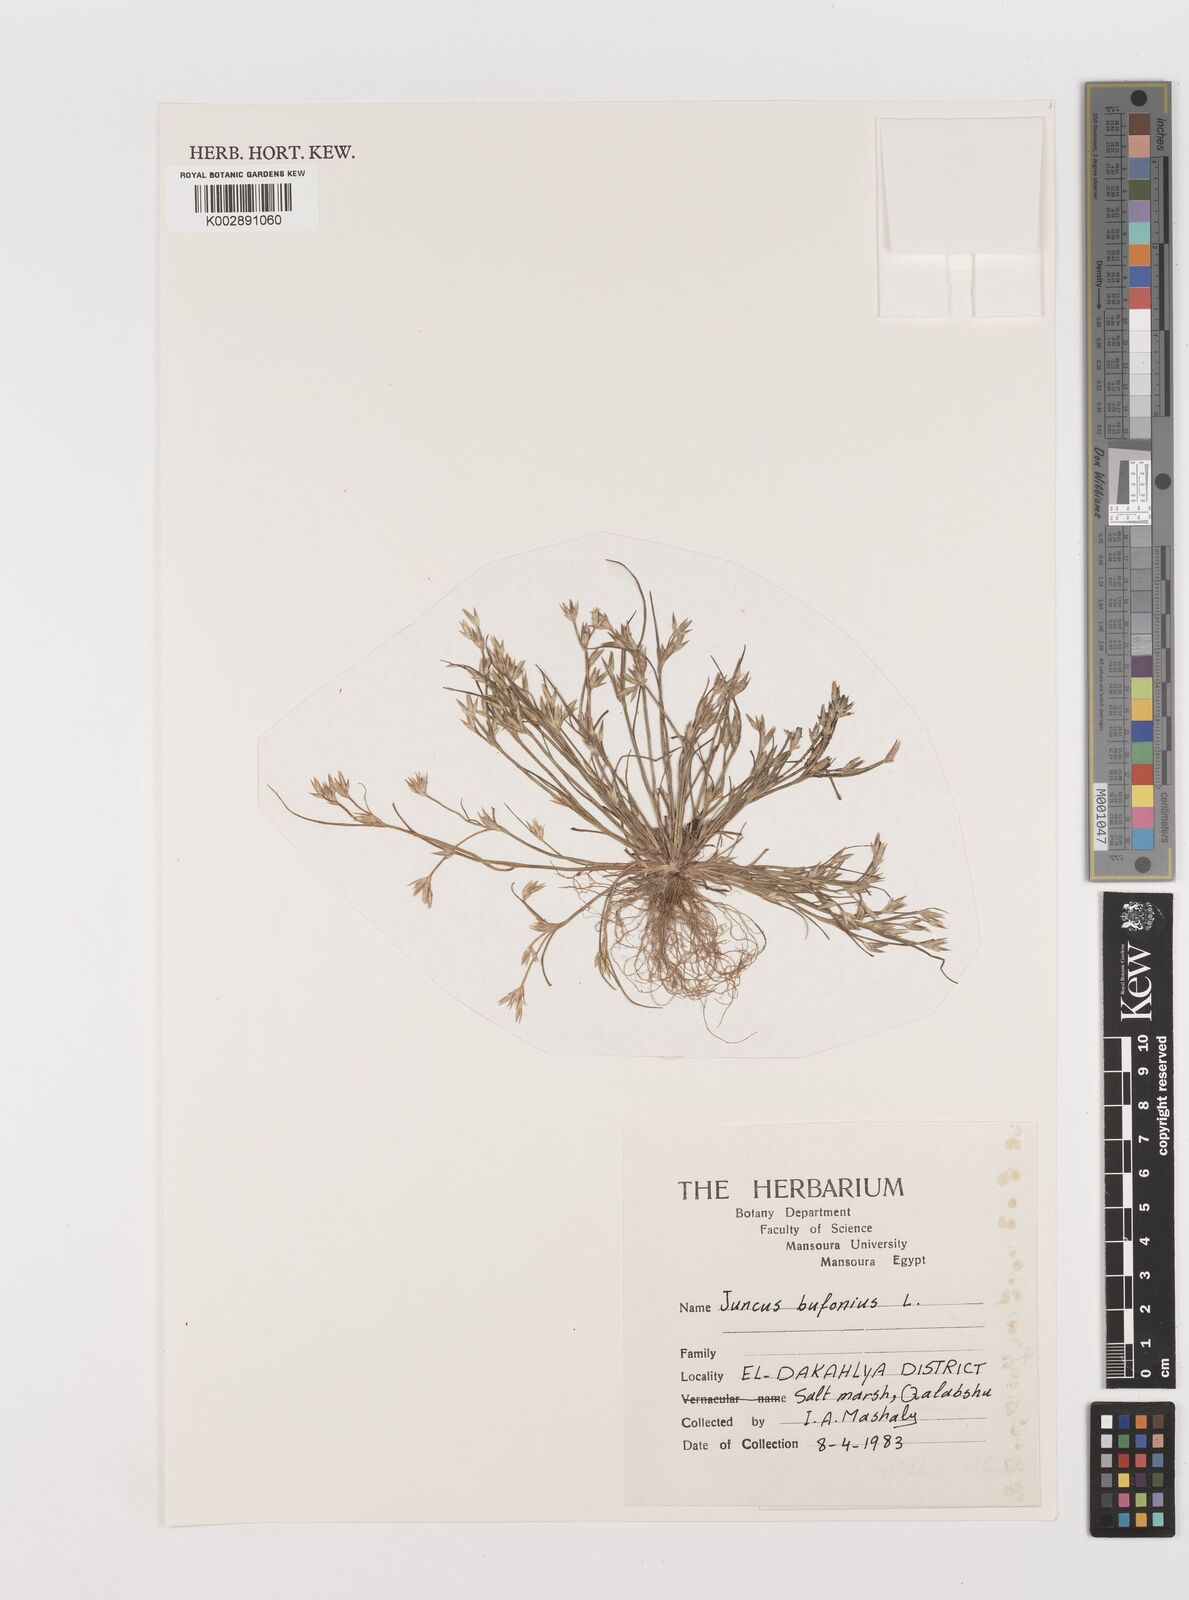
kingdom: Plantae
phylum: Tracheophyta
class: Liliopsida
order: Poales
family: Juncaceae
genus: Juncus
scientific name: Juncus bufonius
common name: Toad rush
